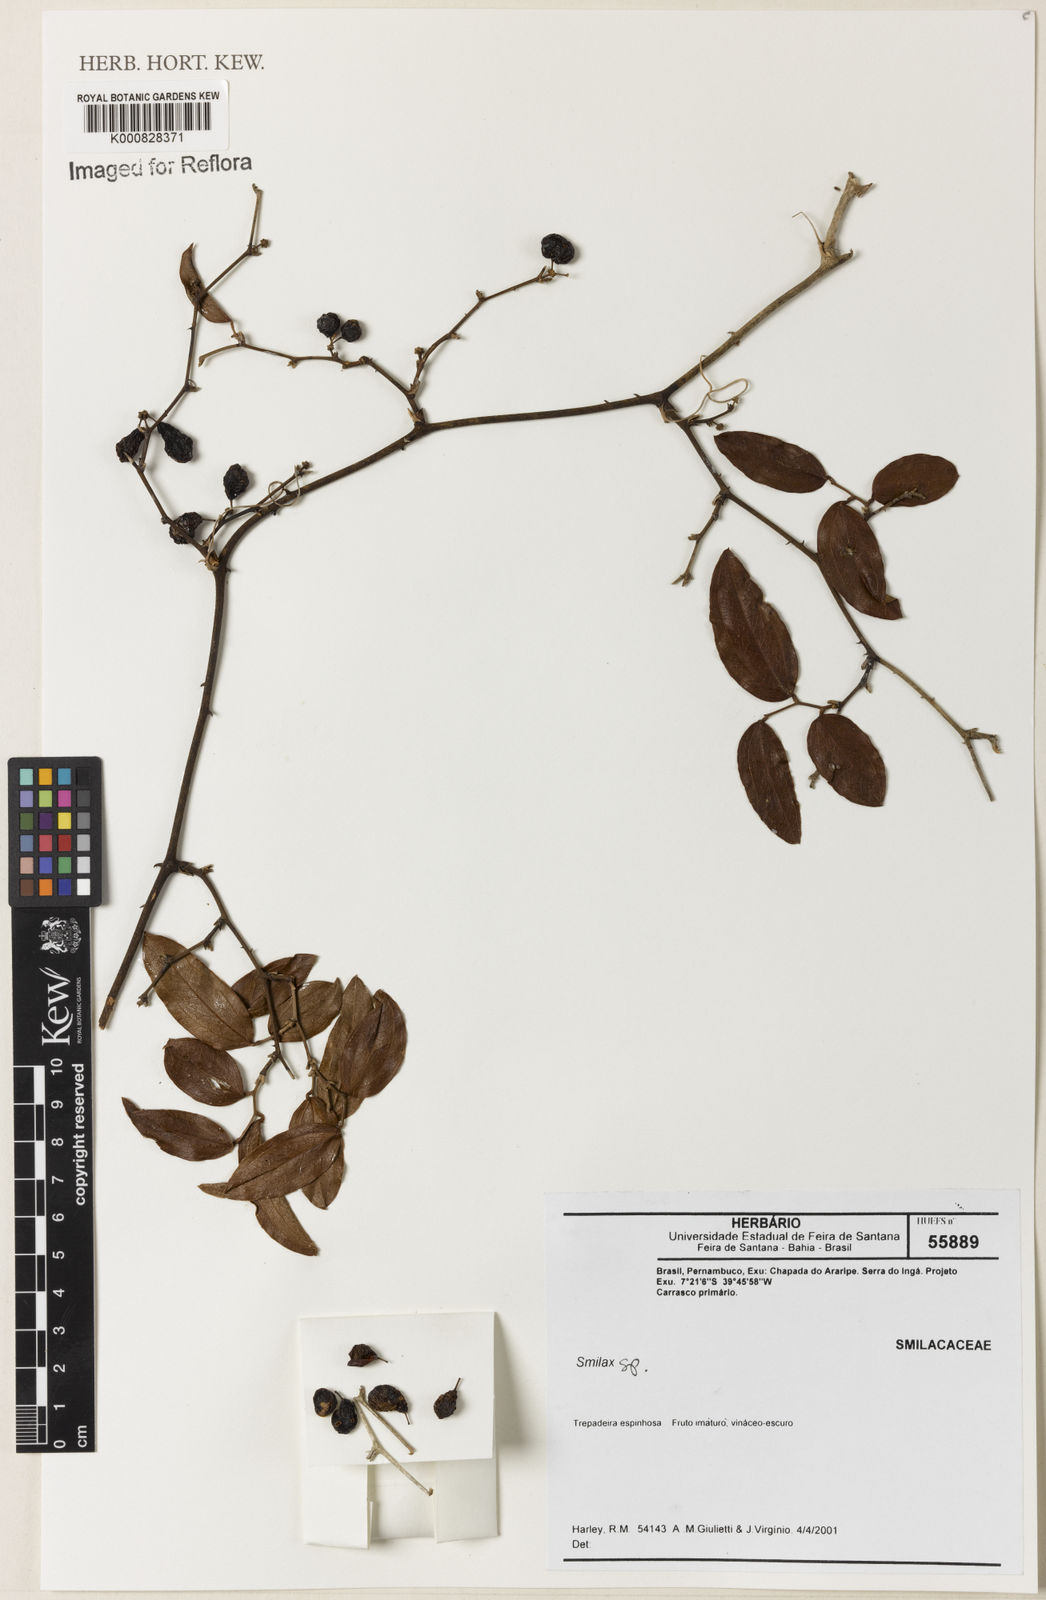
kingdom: Plantae
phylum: Tracheophyta
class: Liliopsida
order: Liliales
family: Smilacaceae
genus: Smilax
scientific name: Smilax
